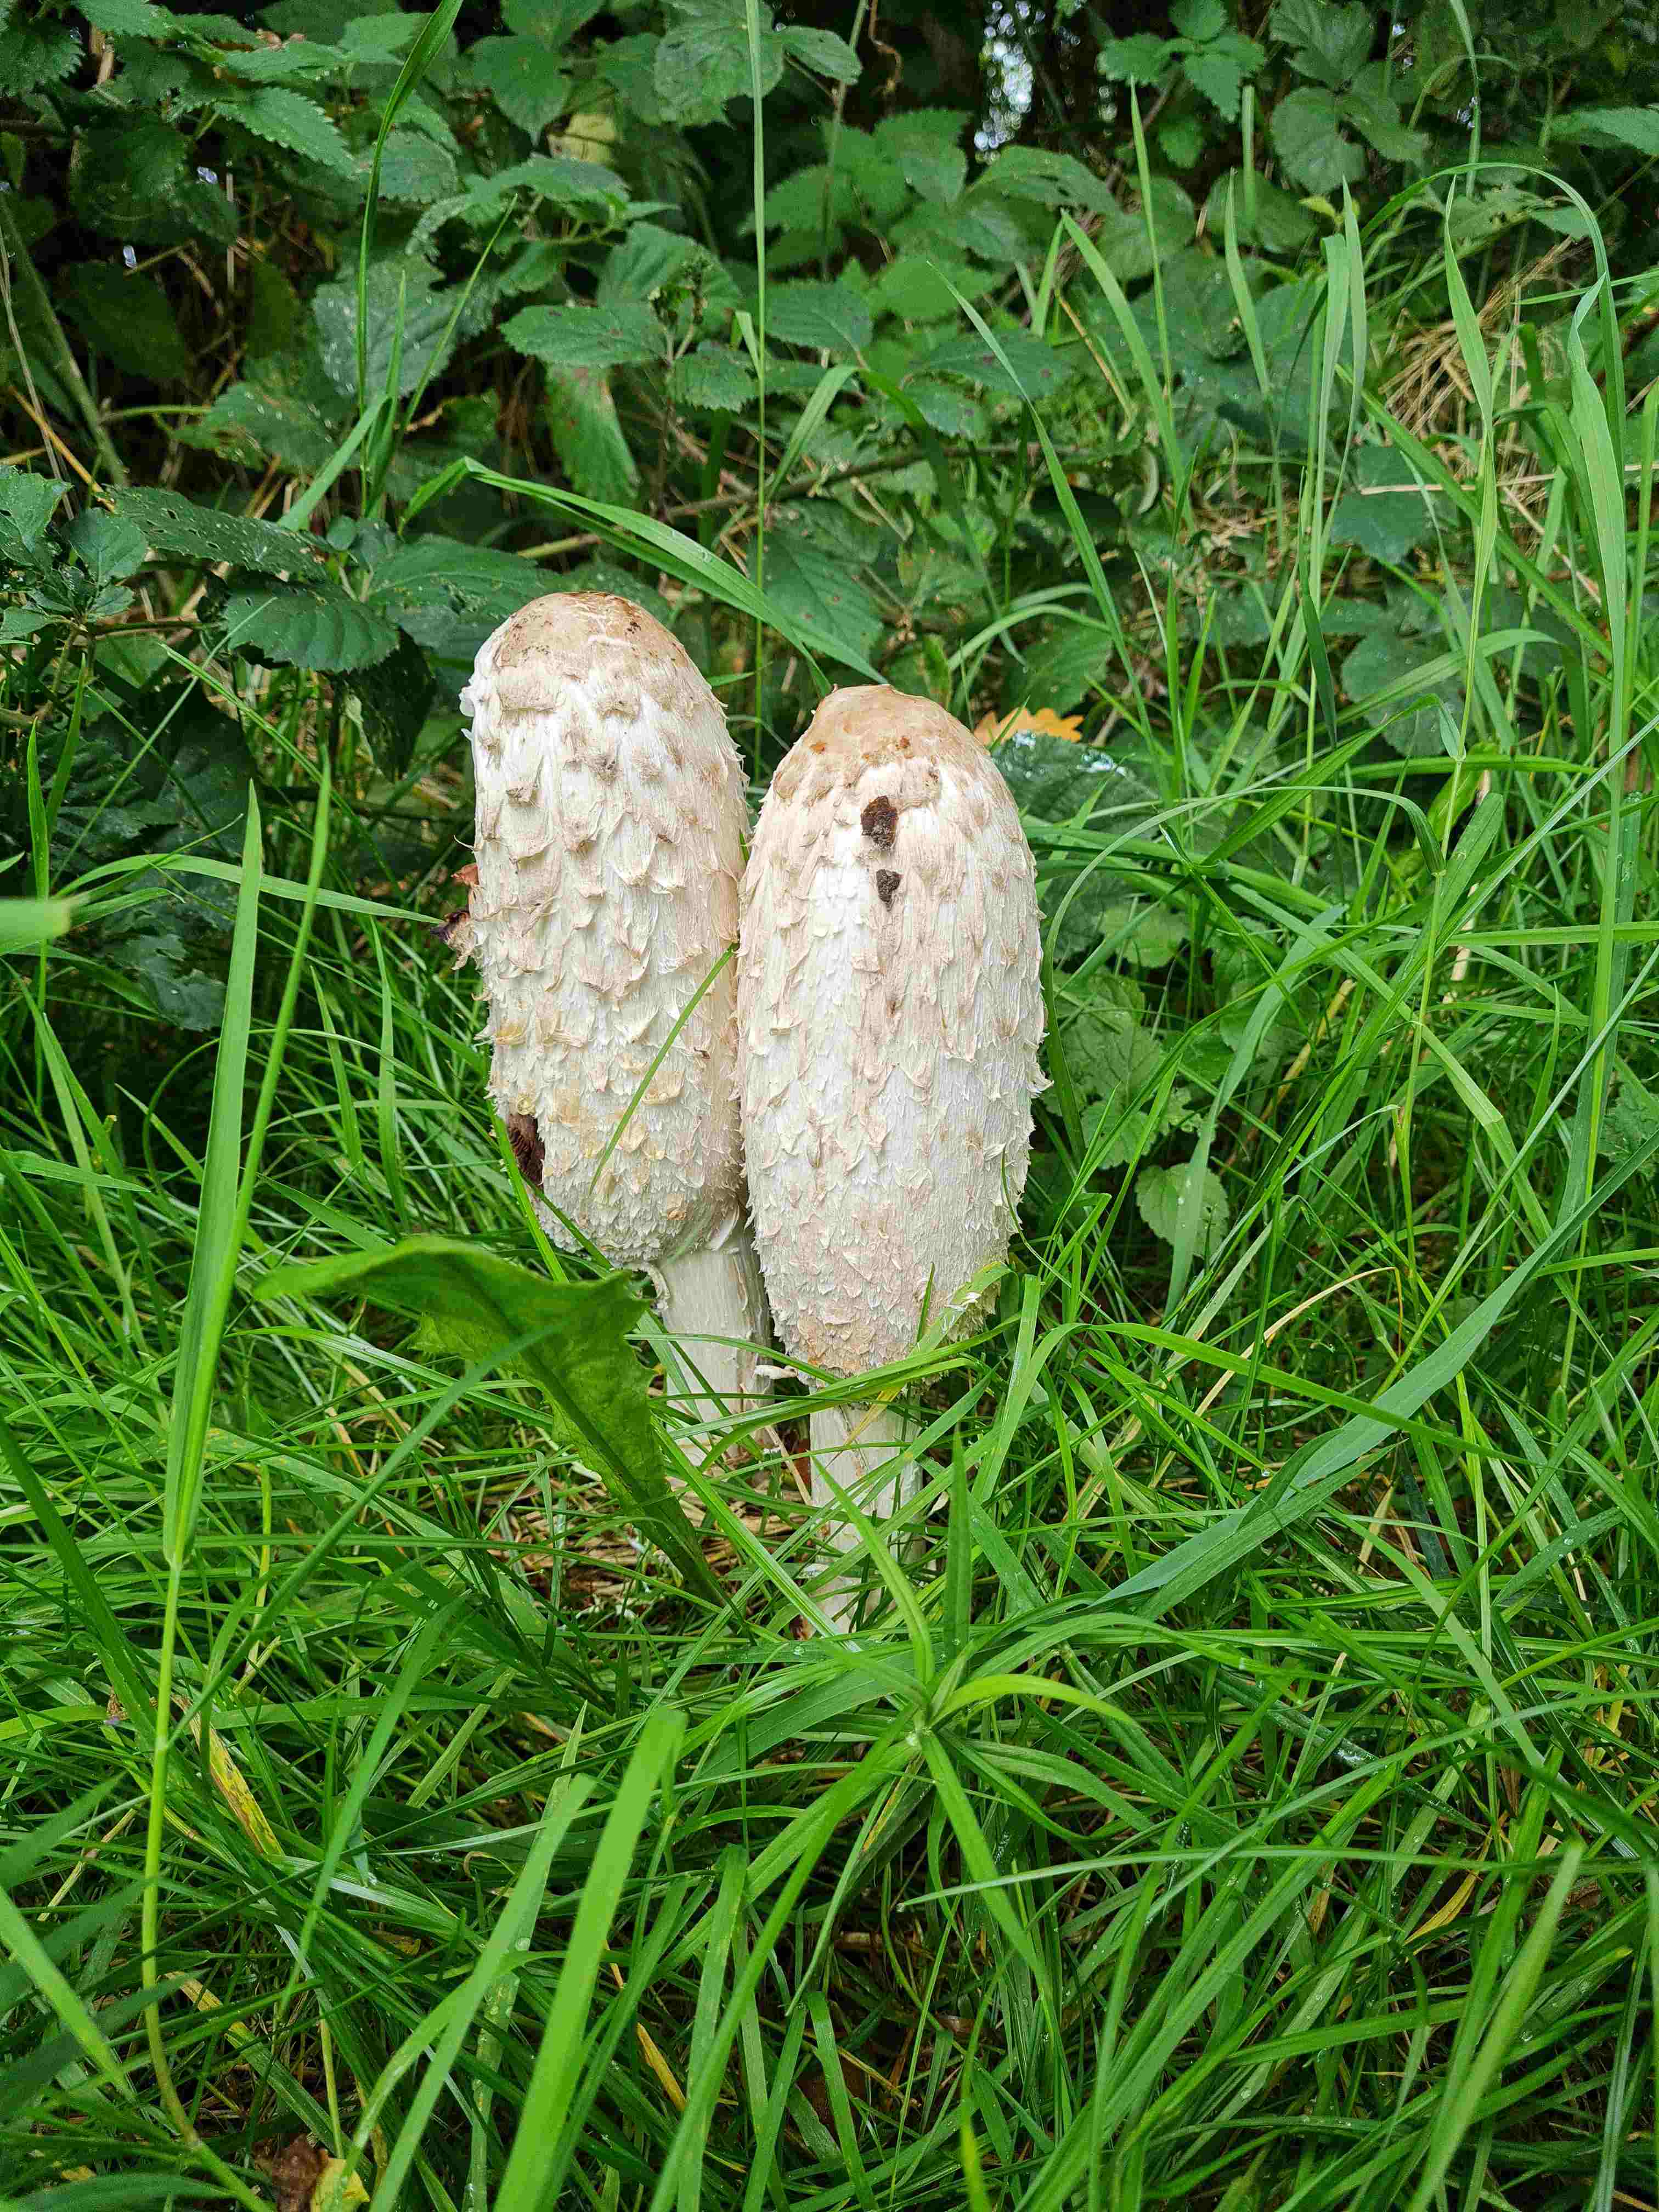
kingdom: Fungi
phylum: Basidiomycota
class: Agaricomycetes
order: Agaricales
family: Agaricaceae
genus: Coprinus
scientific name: Coprinus comatus
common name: stor parykhat
